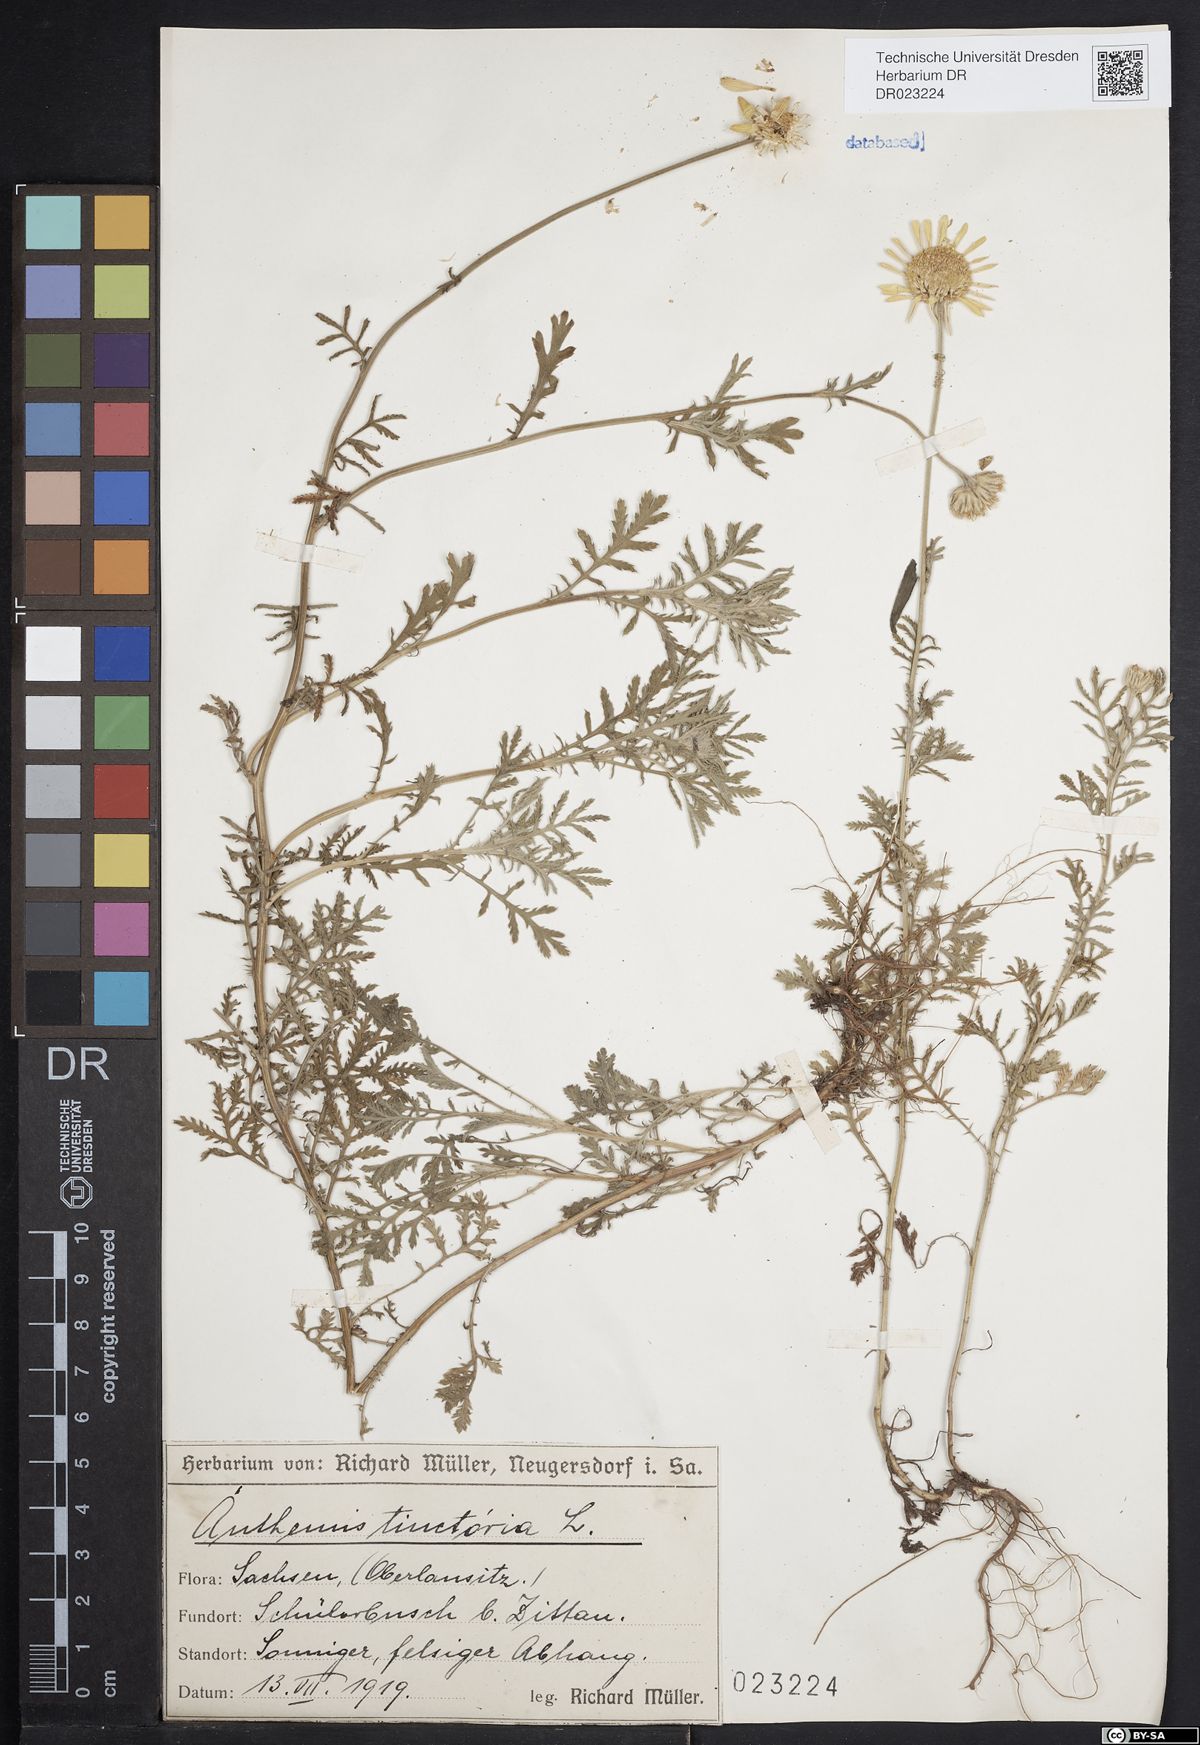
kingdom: Plantae
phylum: Tracheophyta
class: Magnoliopsida
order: Asterales
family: Asteraceae
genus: Cota
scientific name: Cota tinctoria
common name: Golden chamomile
